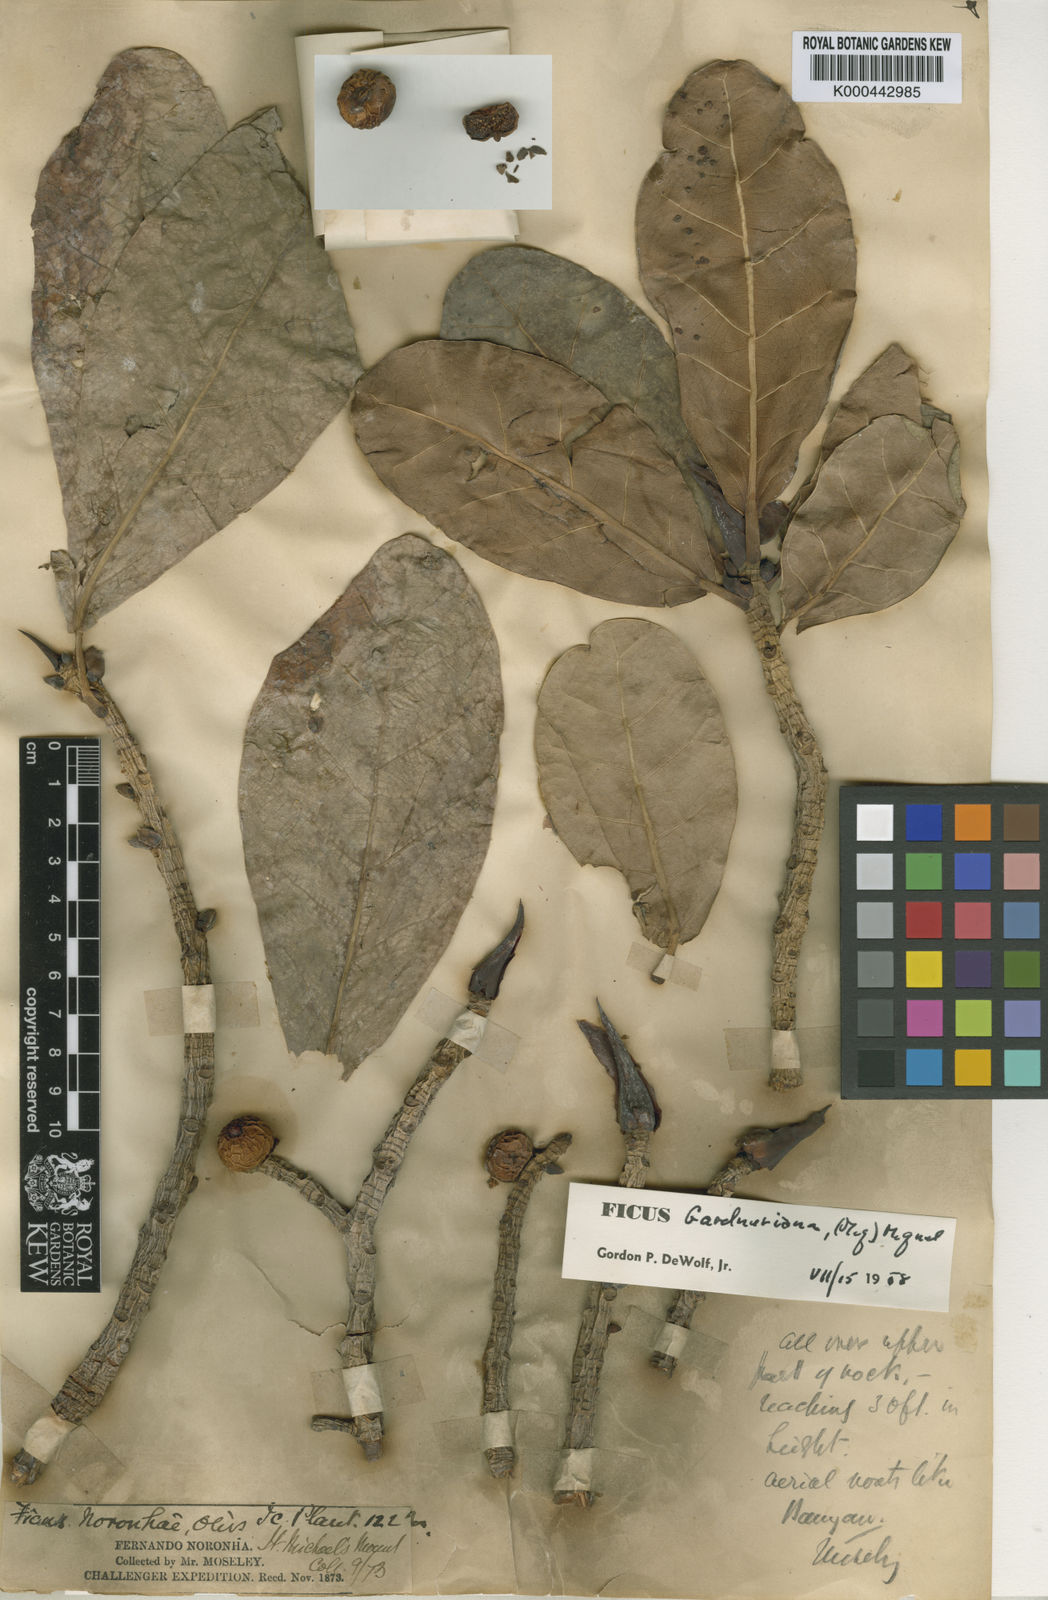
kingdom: Plantae
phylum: Tracheophyta
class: Magnoliopsida
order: Rosales
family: Moraceae
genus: Ficus
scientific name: Ficus longifolia
